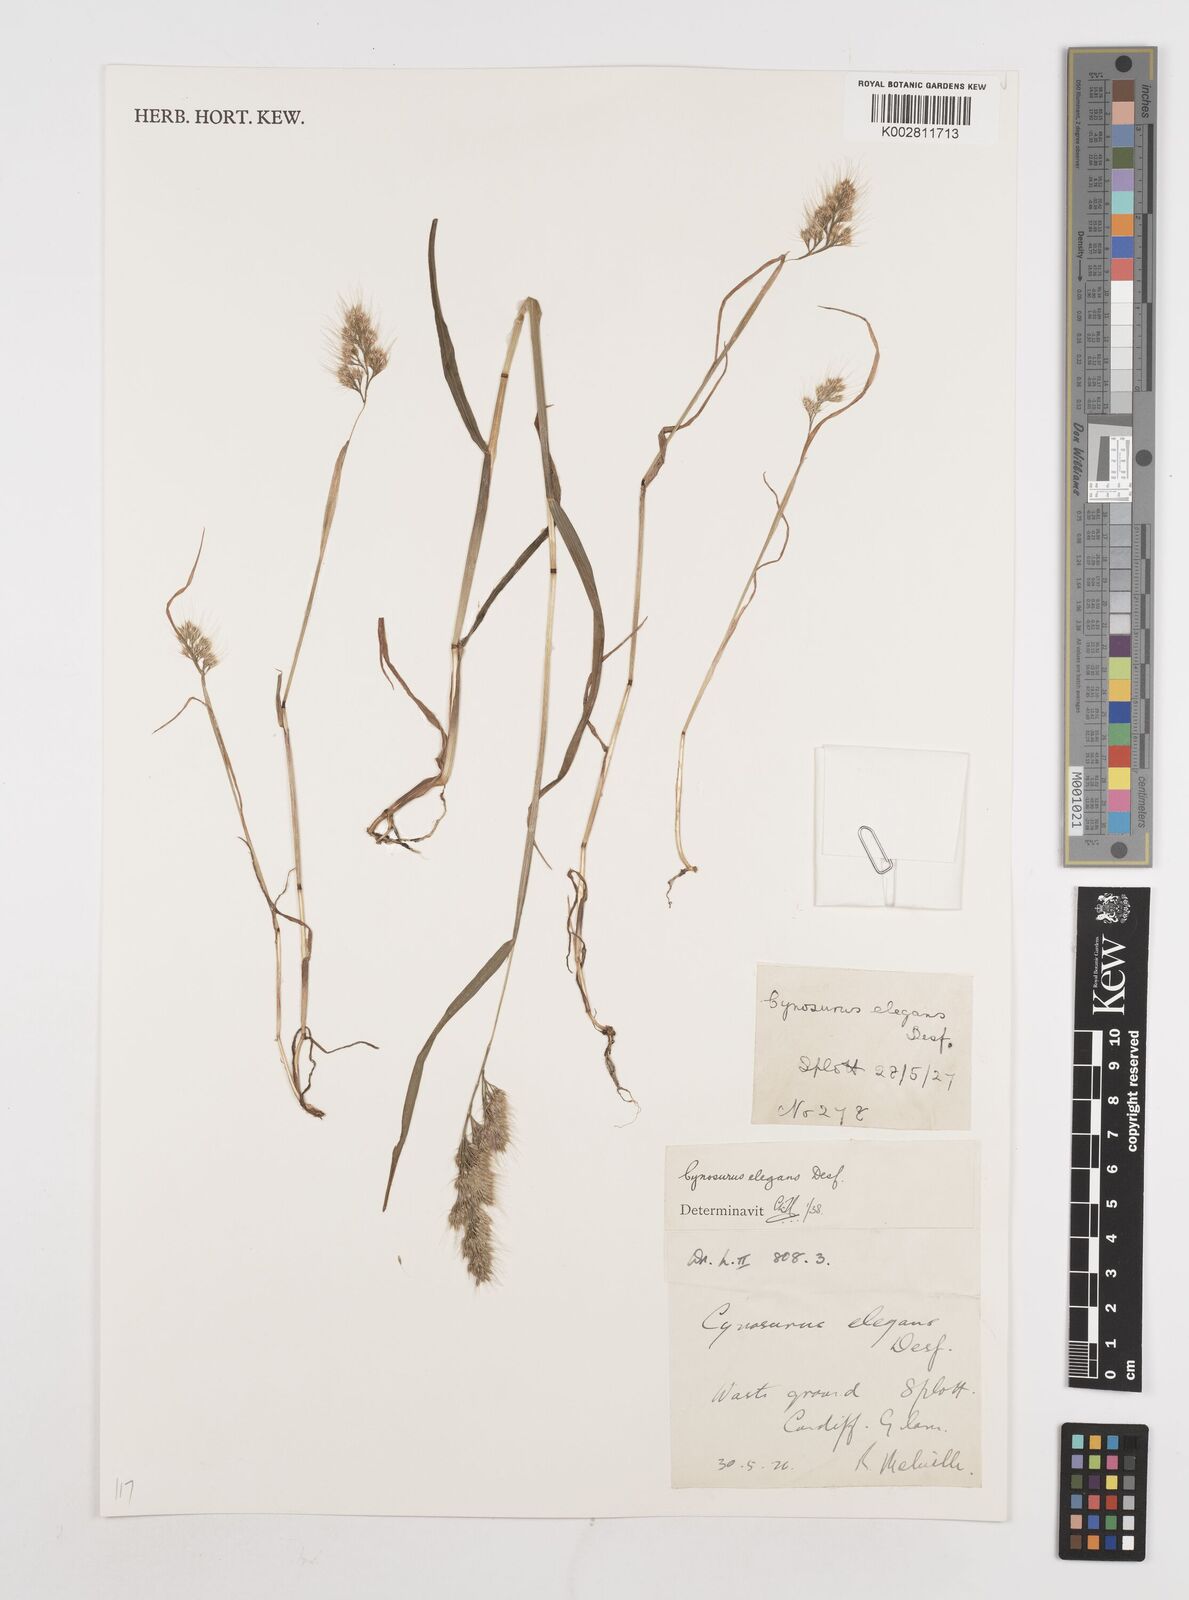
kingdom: Plantae
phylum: Tracheophyta
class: Liliopsida
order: Poales
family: Poaceae
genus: Cynosurus
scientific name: Cynosurus echinatus
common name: Rough dog's-tail
